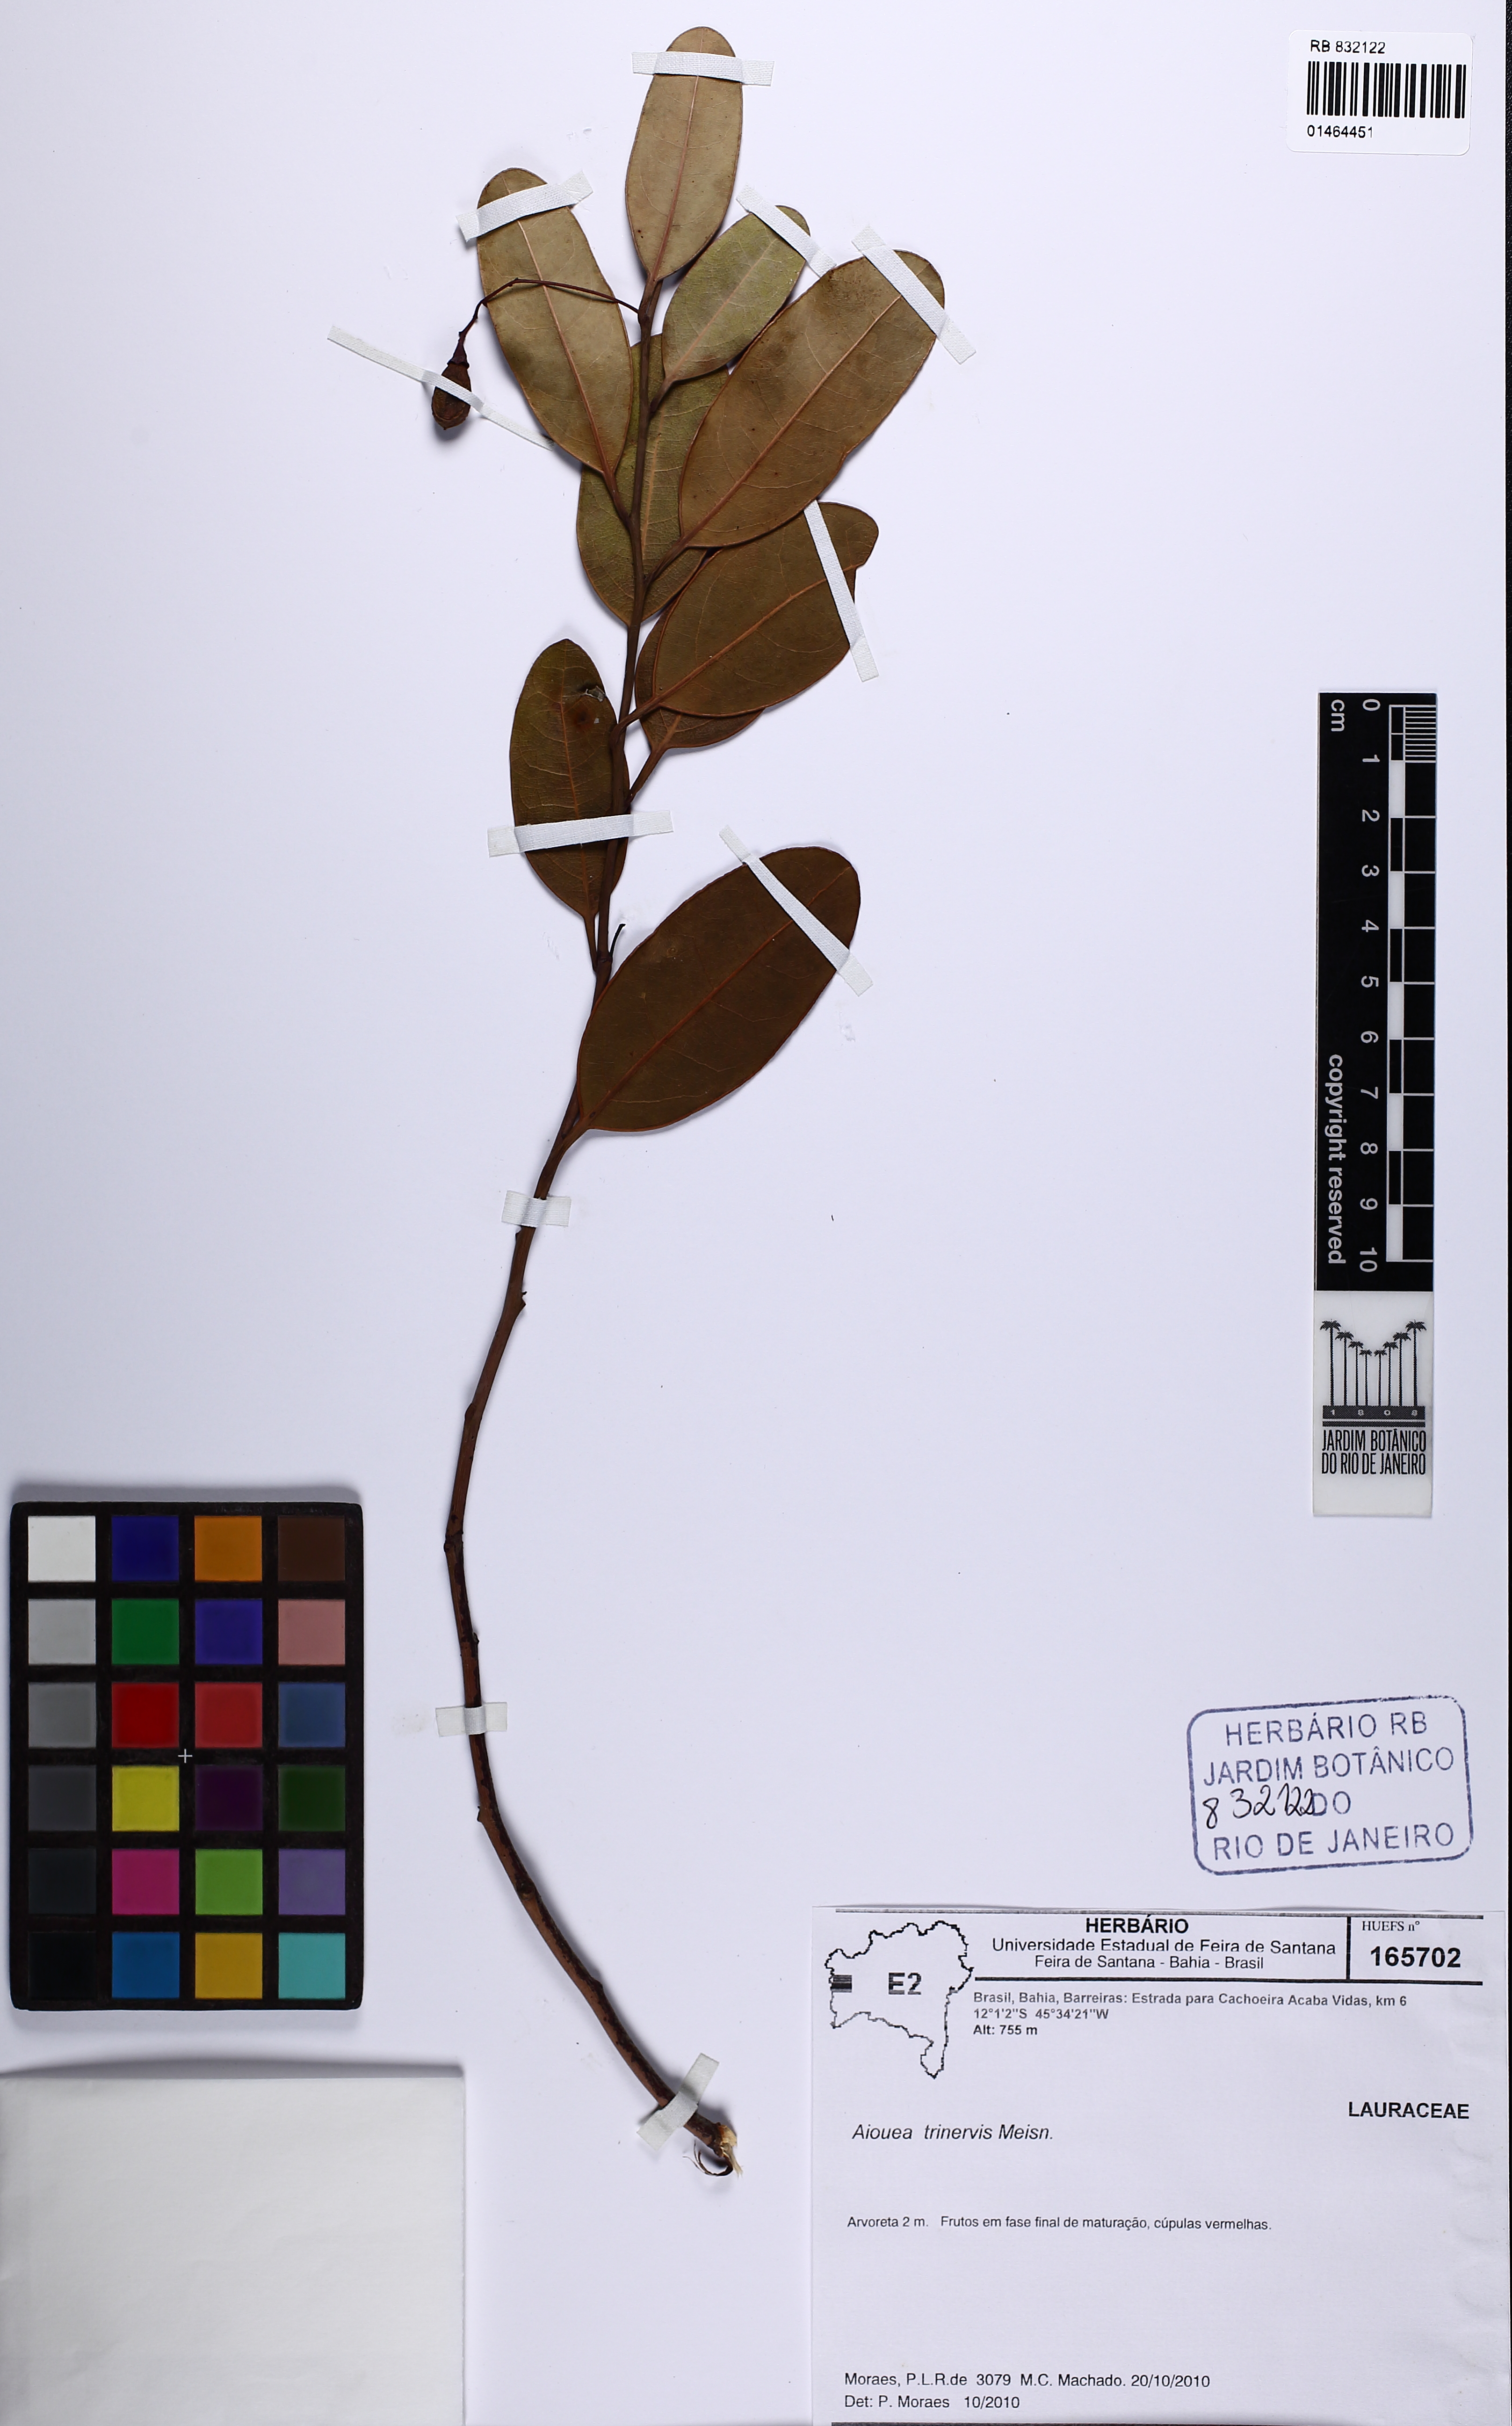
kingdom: Plantae
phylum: Tracheophyta
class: Magnoliopsida
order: Laurales
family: Lauraceae
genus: Aiouea
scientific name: Aiouea trinervis
